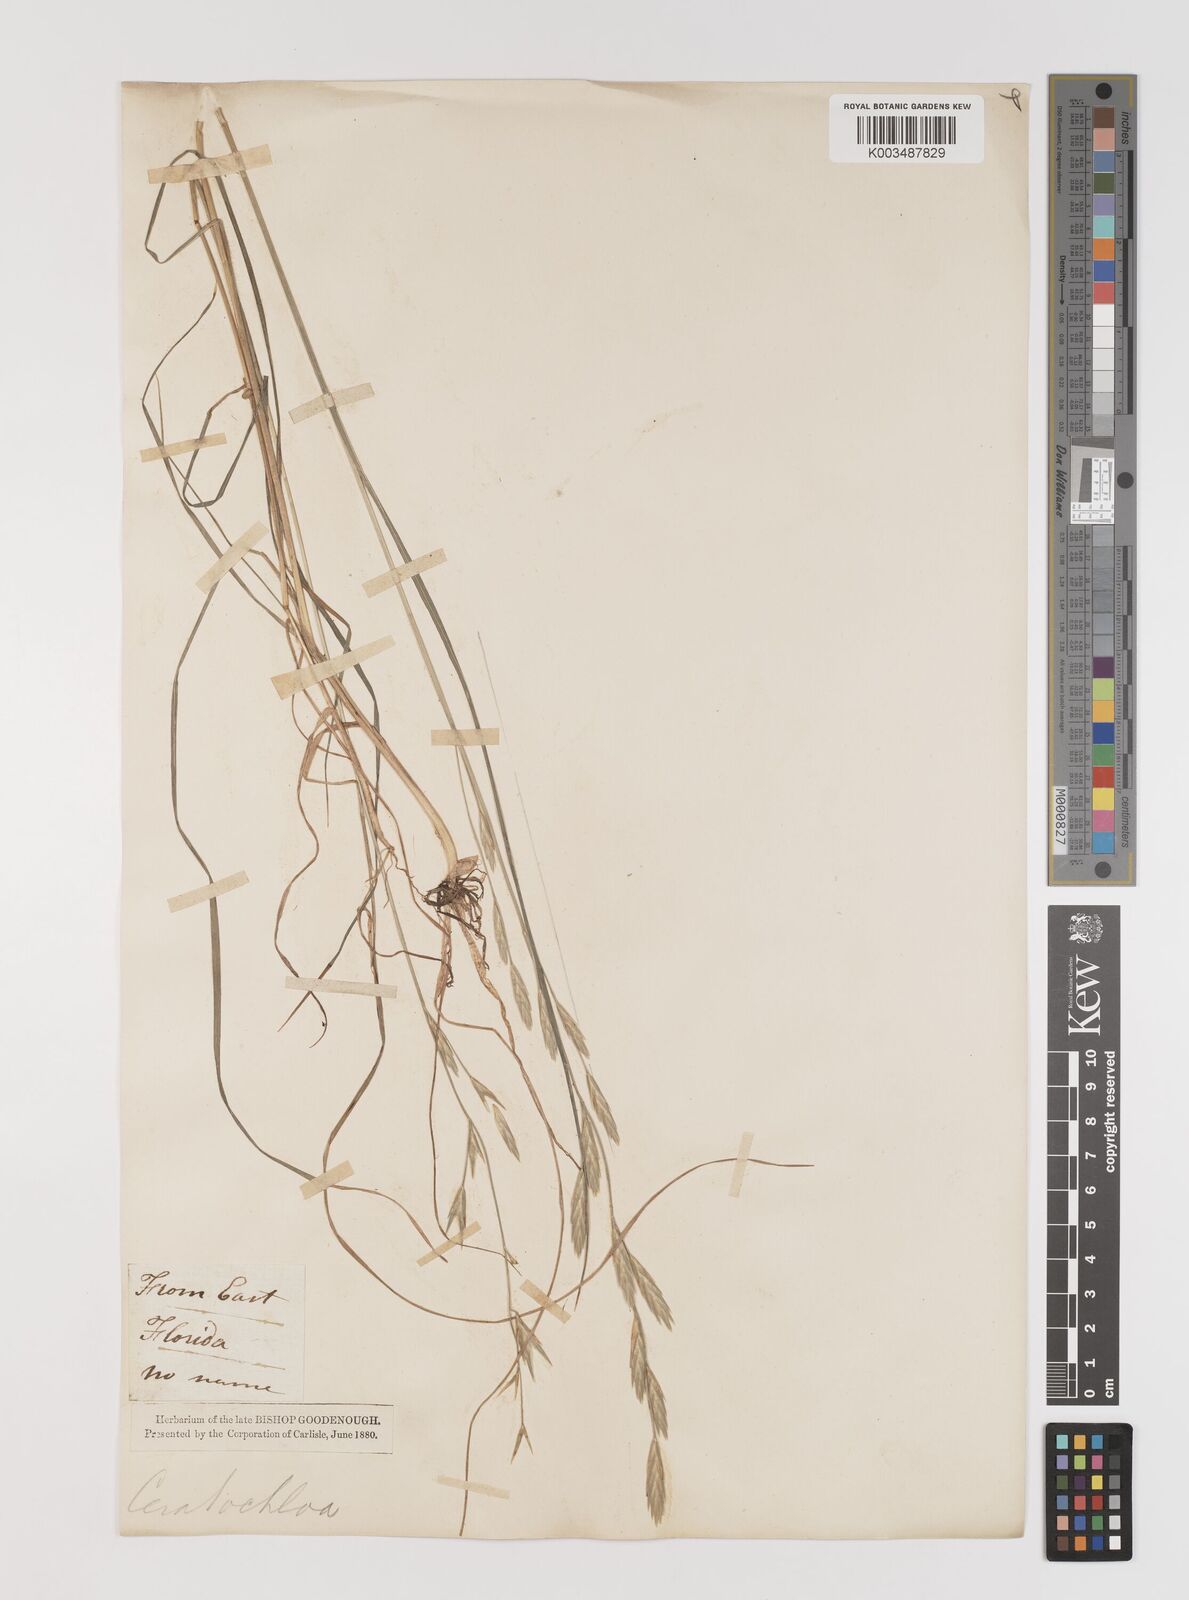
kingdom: Plantae
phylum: Tracheophyta
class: Liliopsida
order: Poales
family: Poaceae
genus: Bromus
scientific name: Bromus catharticus
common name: Rescuegrass
